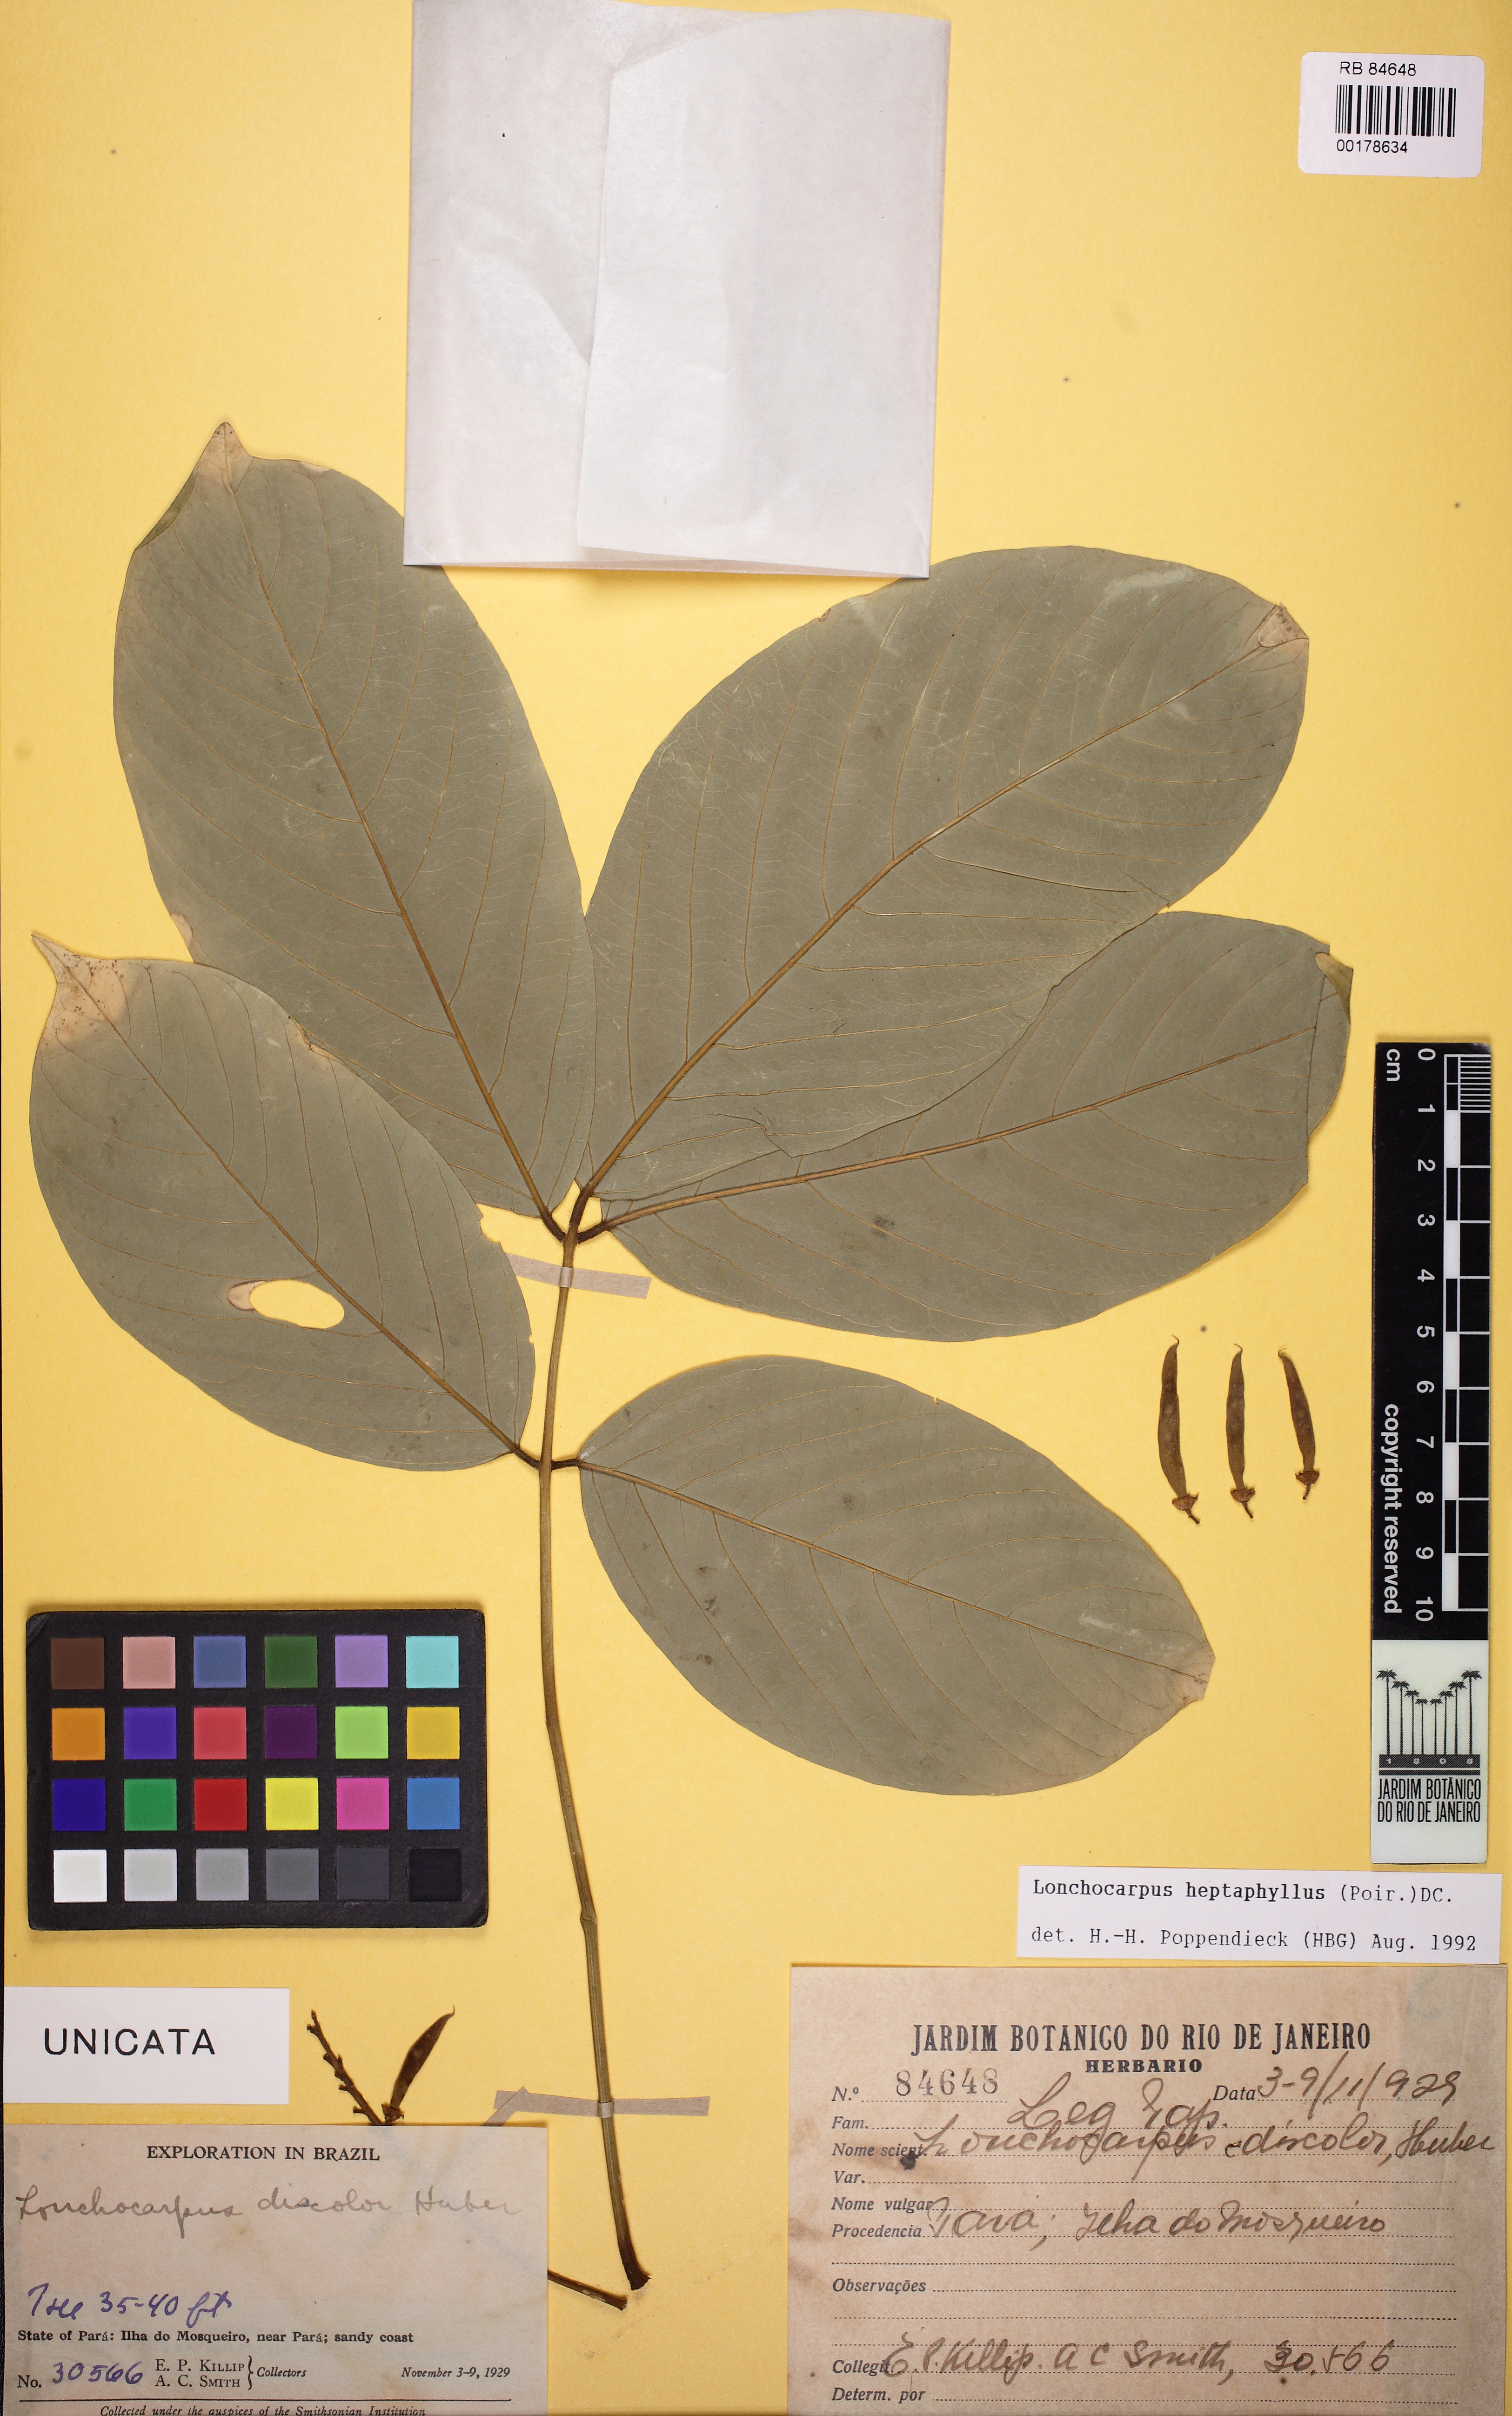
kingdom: Plantae
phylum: Tracheophyta
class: Magnoliopsida
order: Fabales
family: Fabaceae
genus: Lonchocarpus
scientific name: Lonchocarpus heptaphyllus
